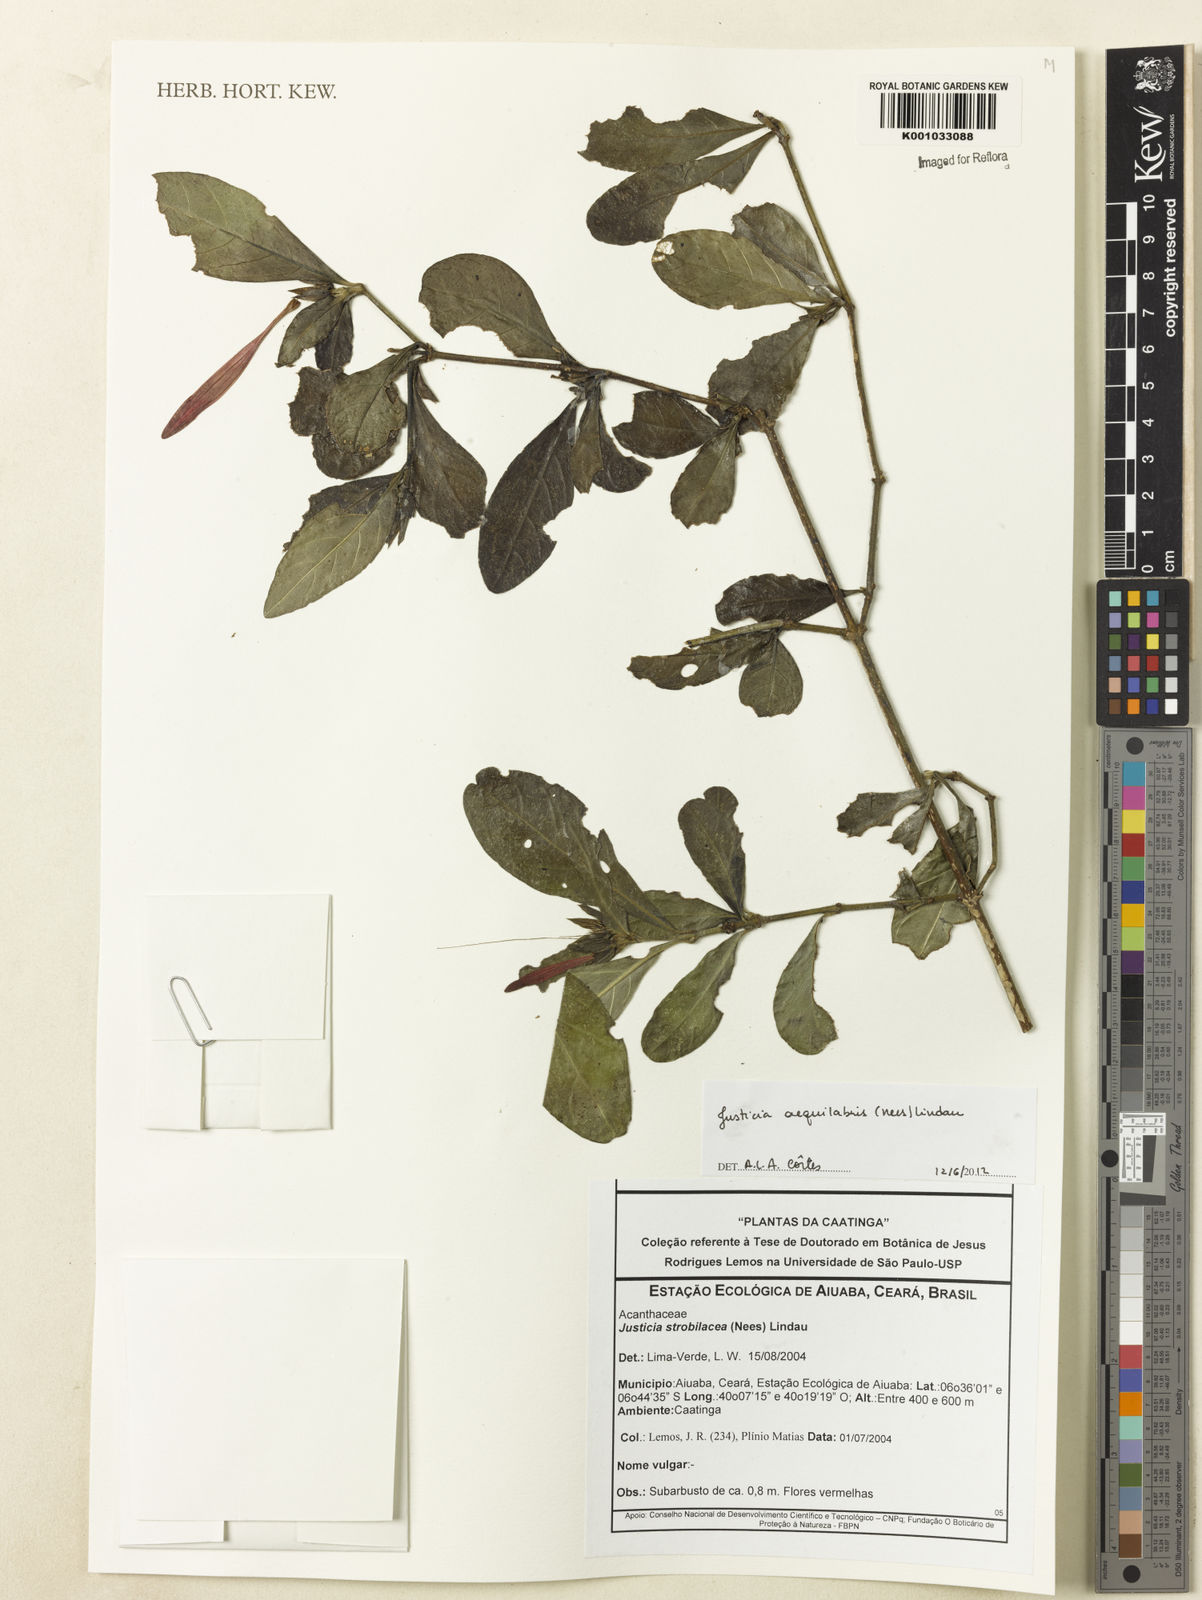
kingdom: Plantae
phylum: Tracheophyta
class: Magnoliopsida
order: Lamiales
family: Acanthaceae
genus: Justicia
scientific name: Justicia aequalis
